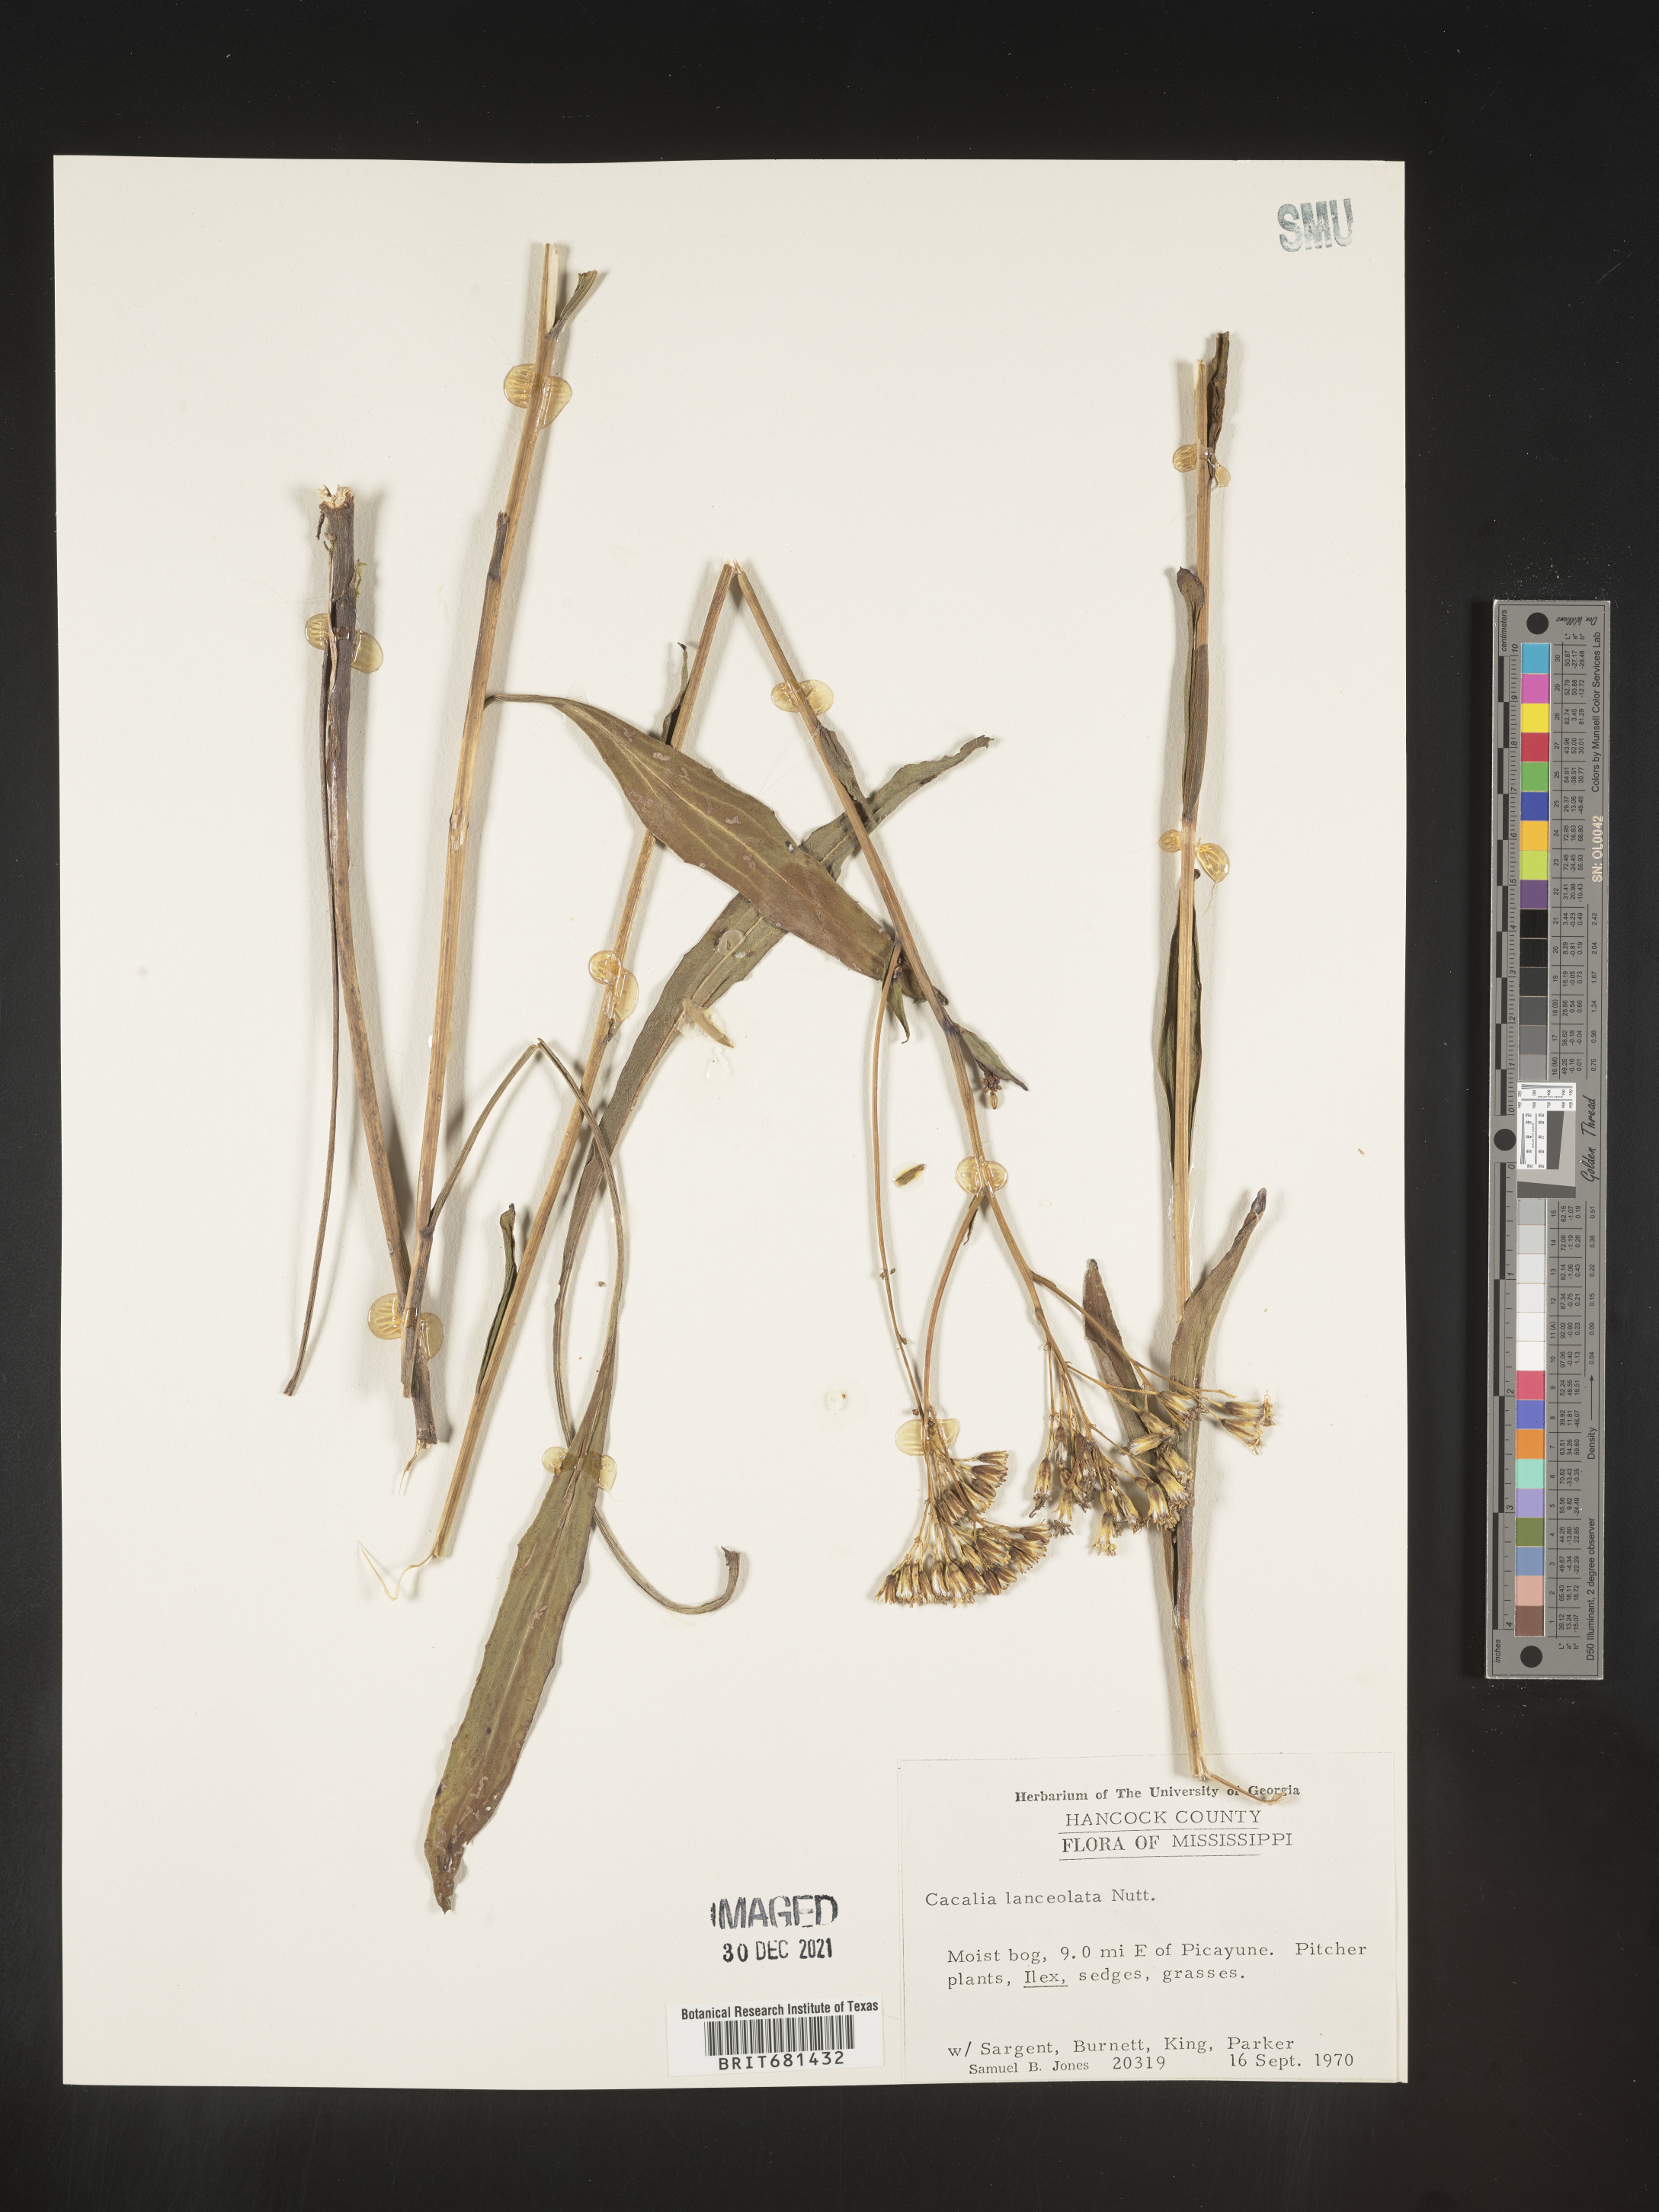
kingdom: Plantae
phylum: Tracheophyta
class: Magnoliopsida
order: Asterales
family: Asteraceae
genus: Arnoglossum
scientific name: Arnoglossum ovatum
